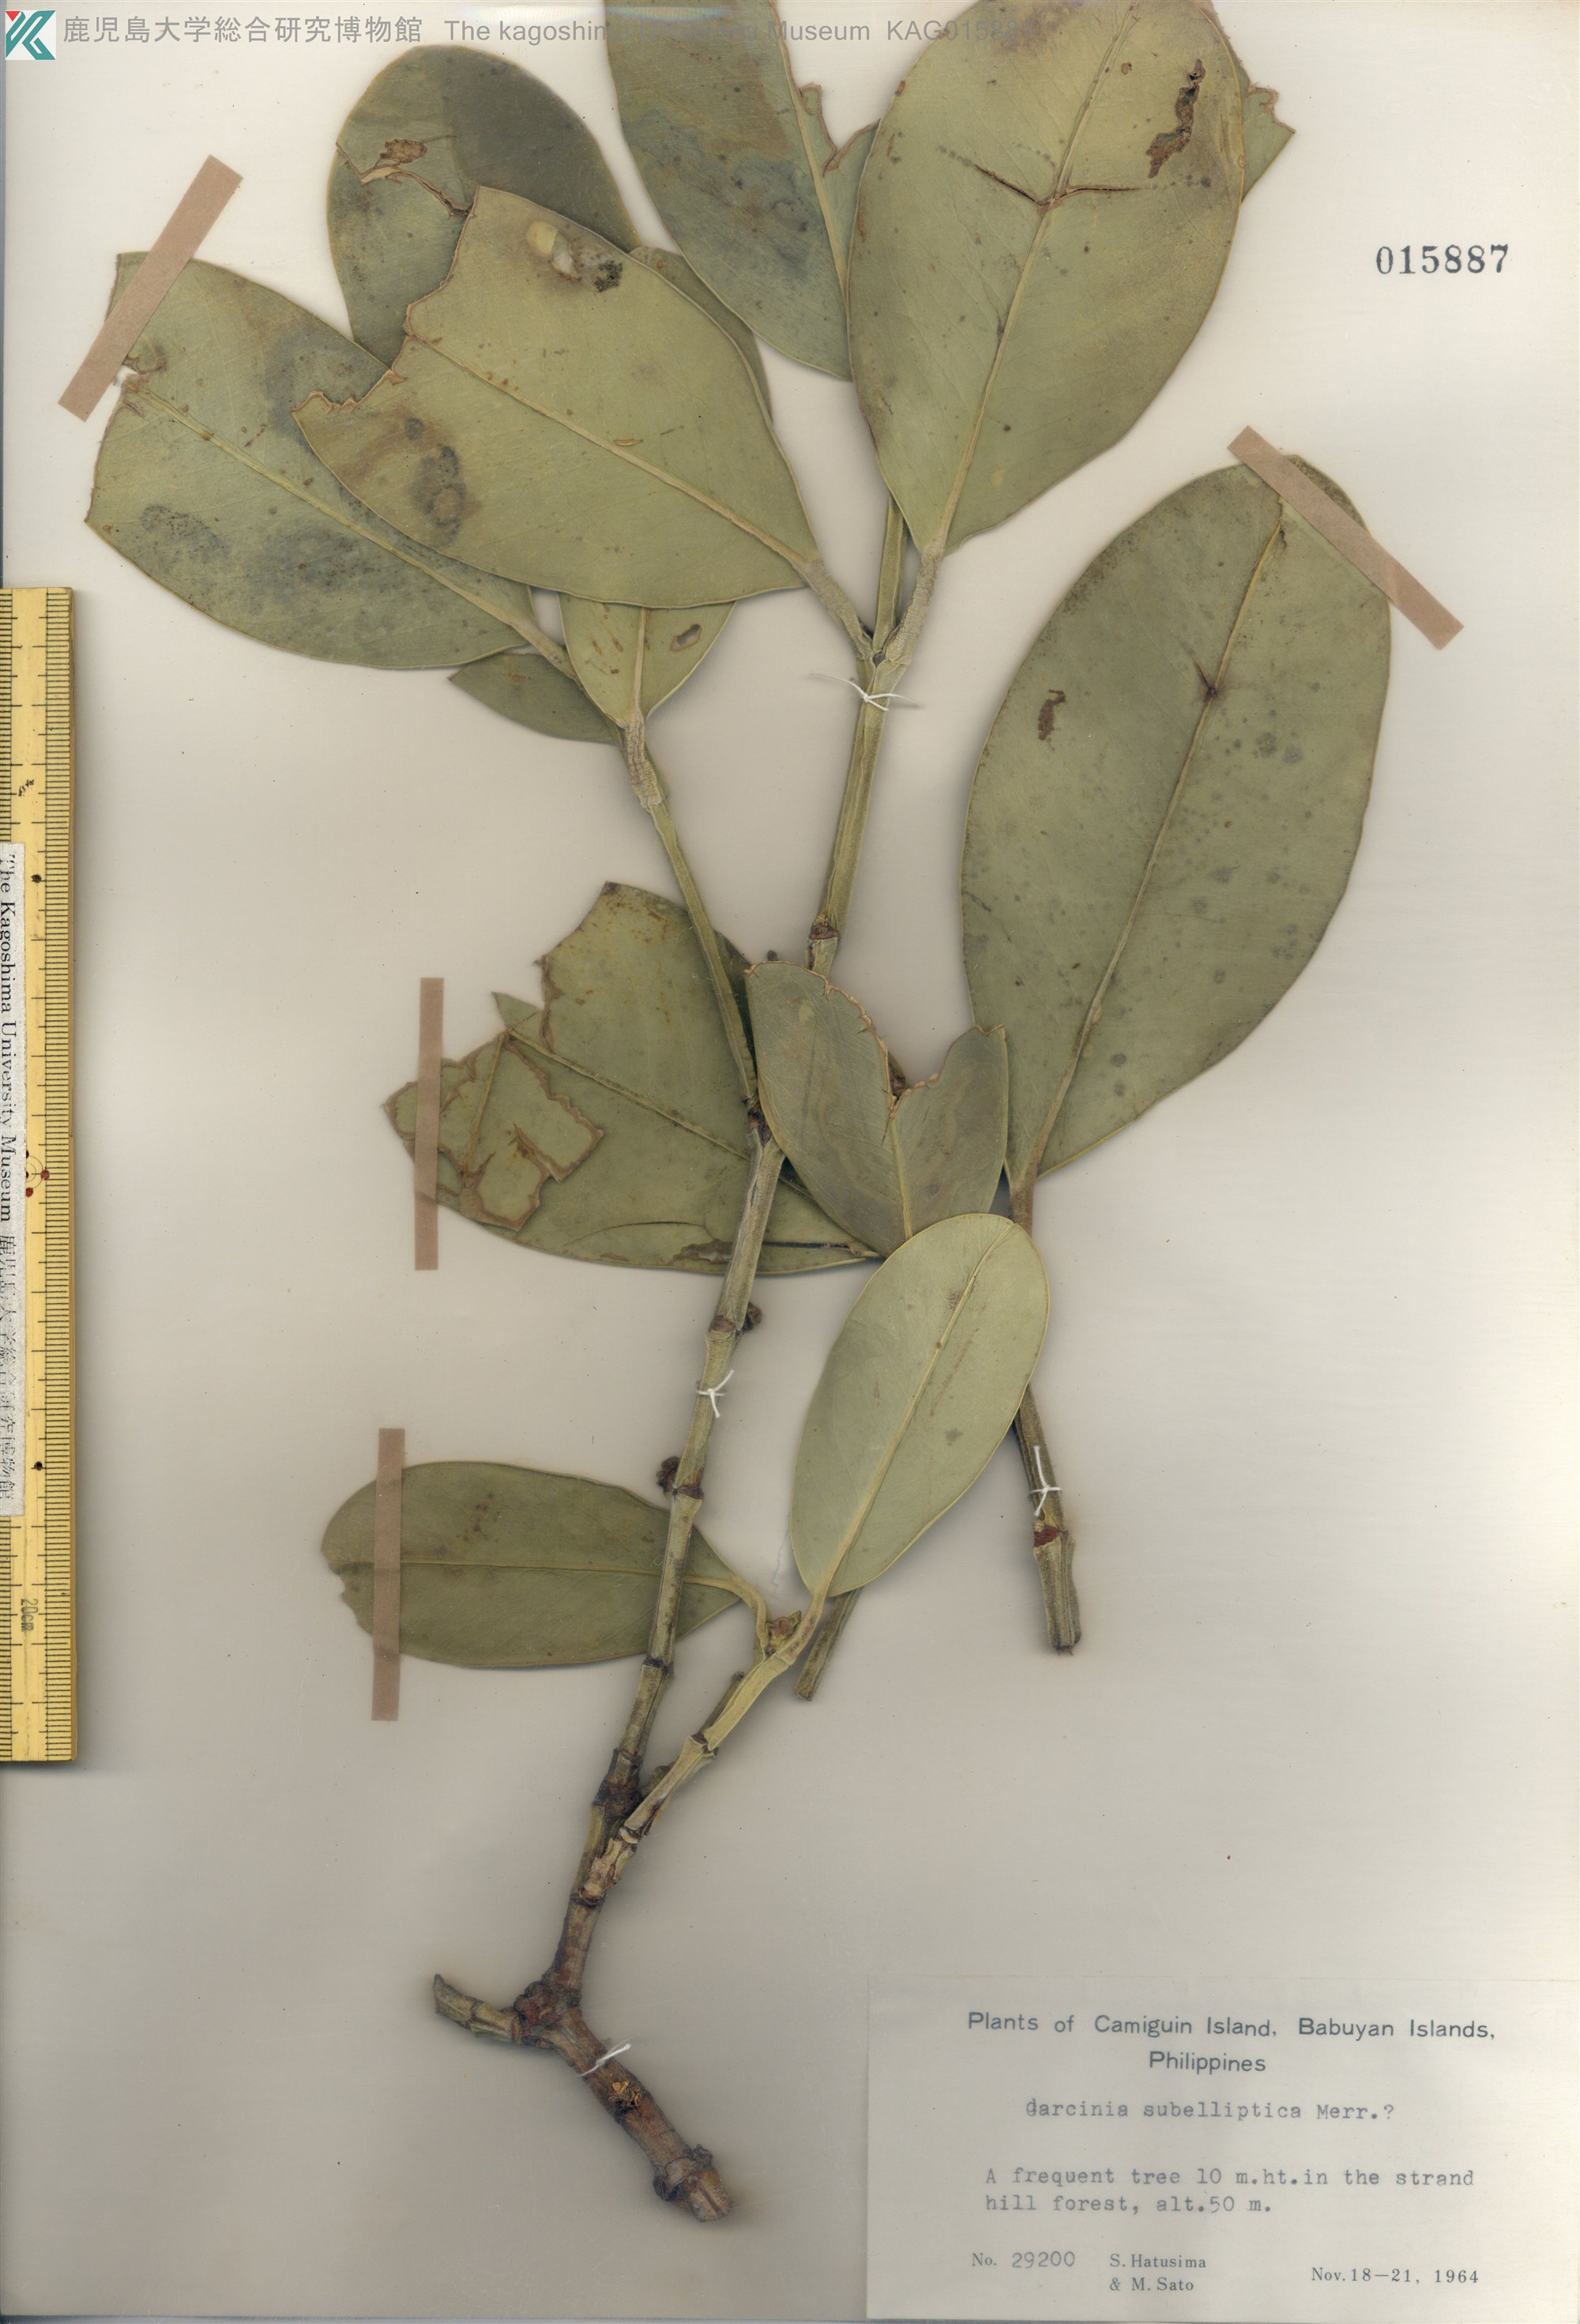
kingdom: Plantae
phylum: Tracheophyta
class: Magnoliopsida
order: Malpighiales
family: Clusiaceae
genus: Garcinia
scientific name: Garcinia subelliptica
